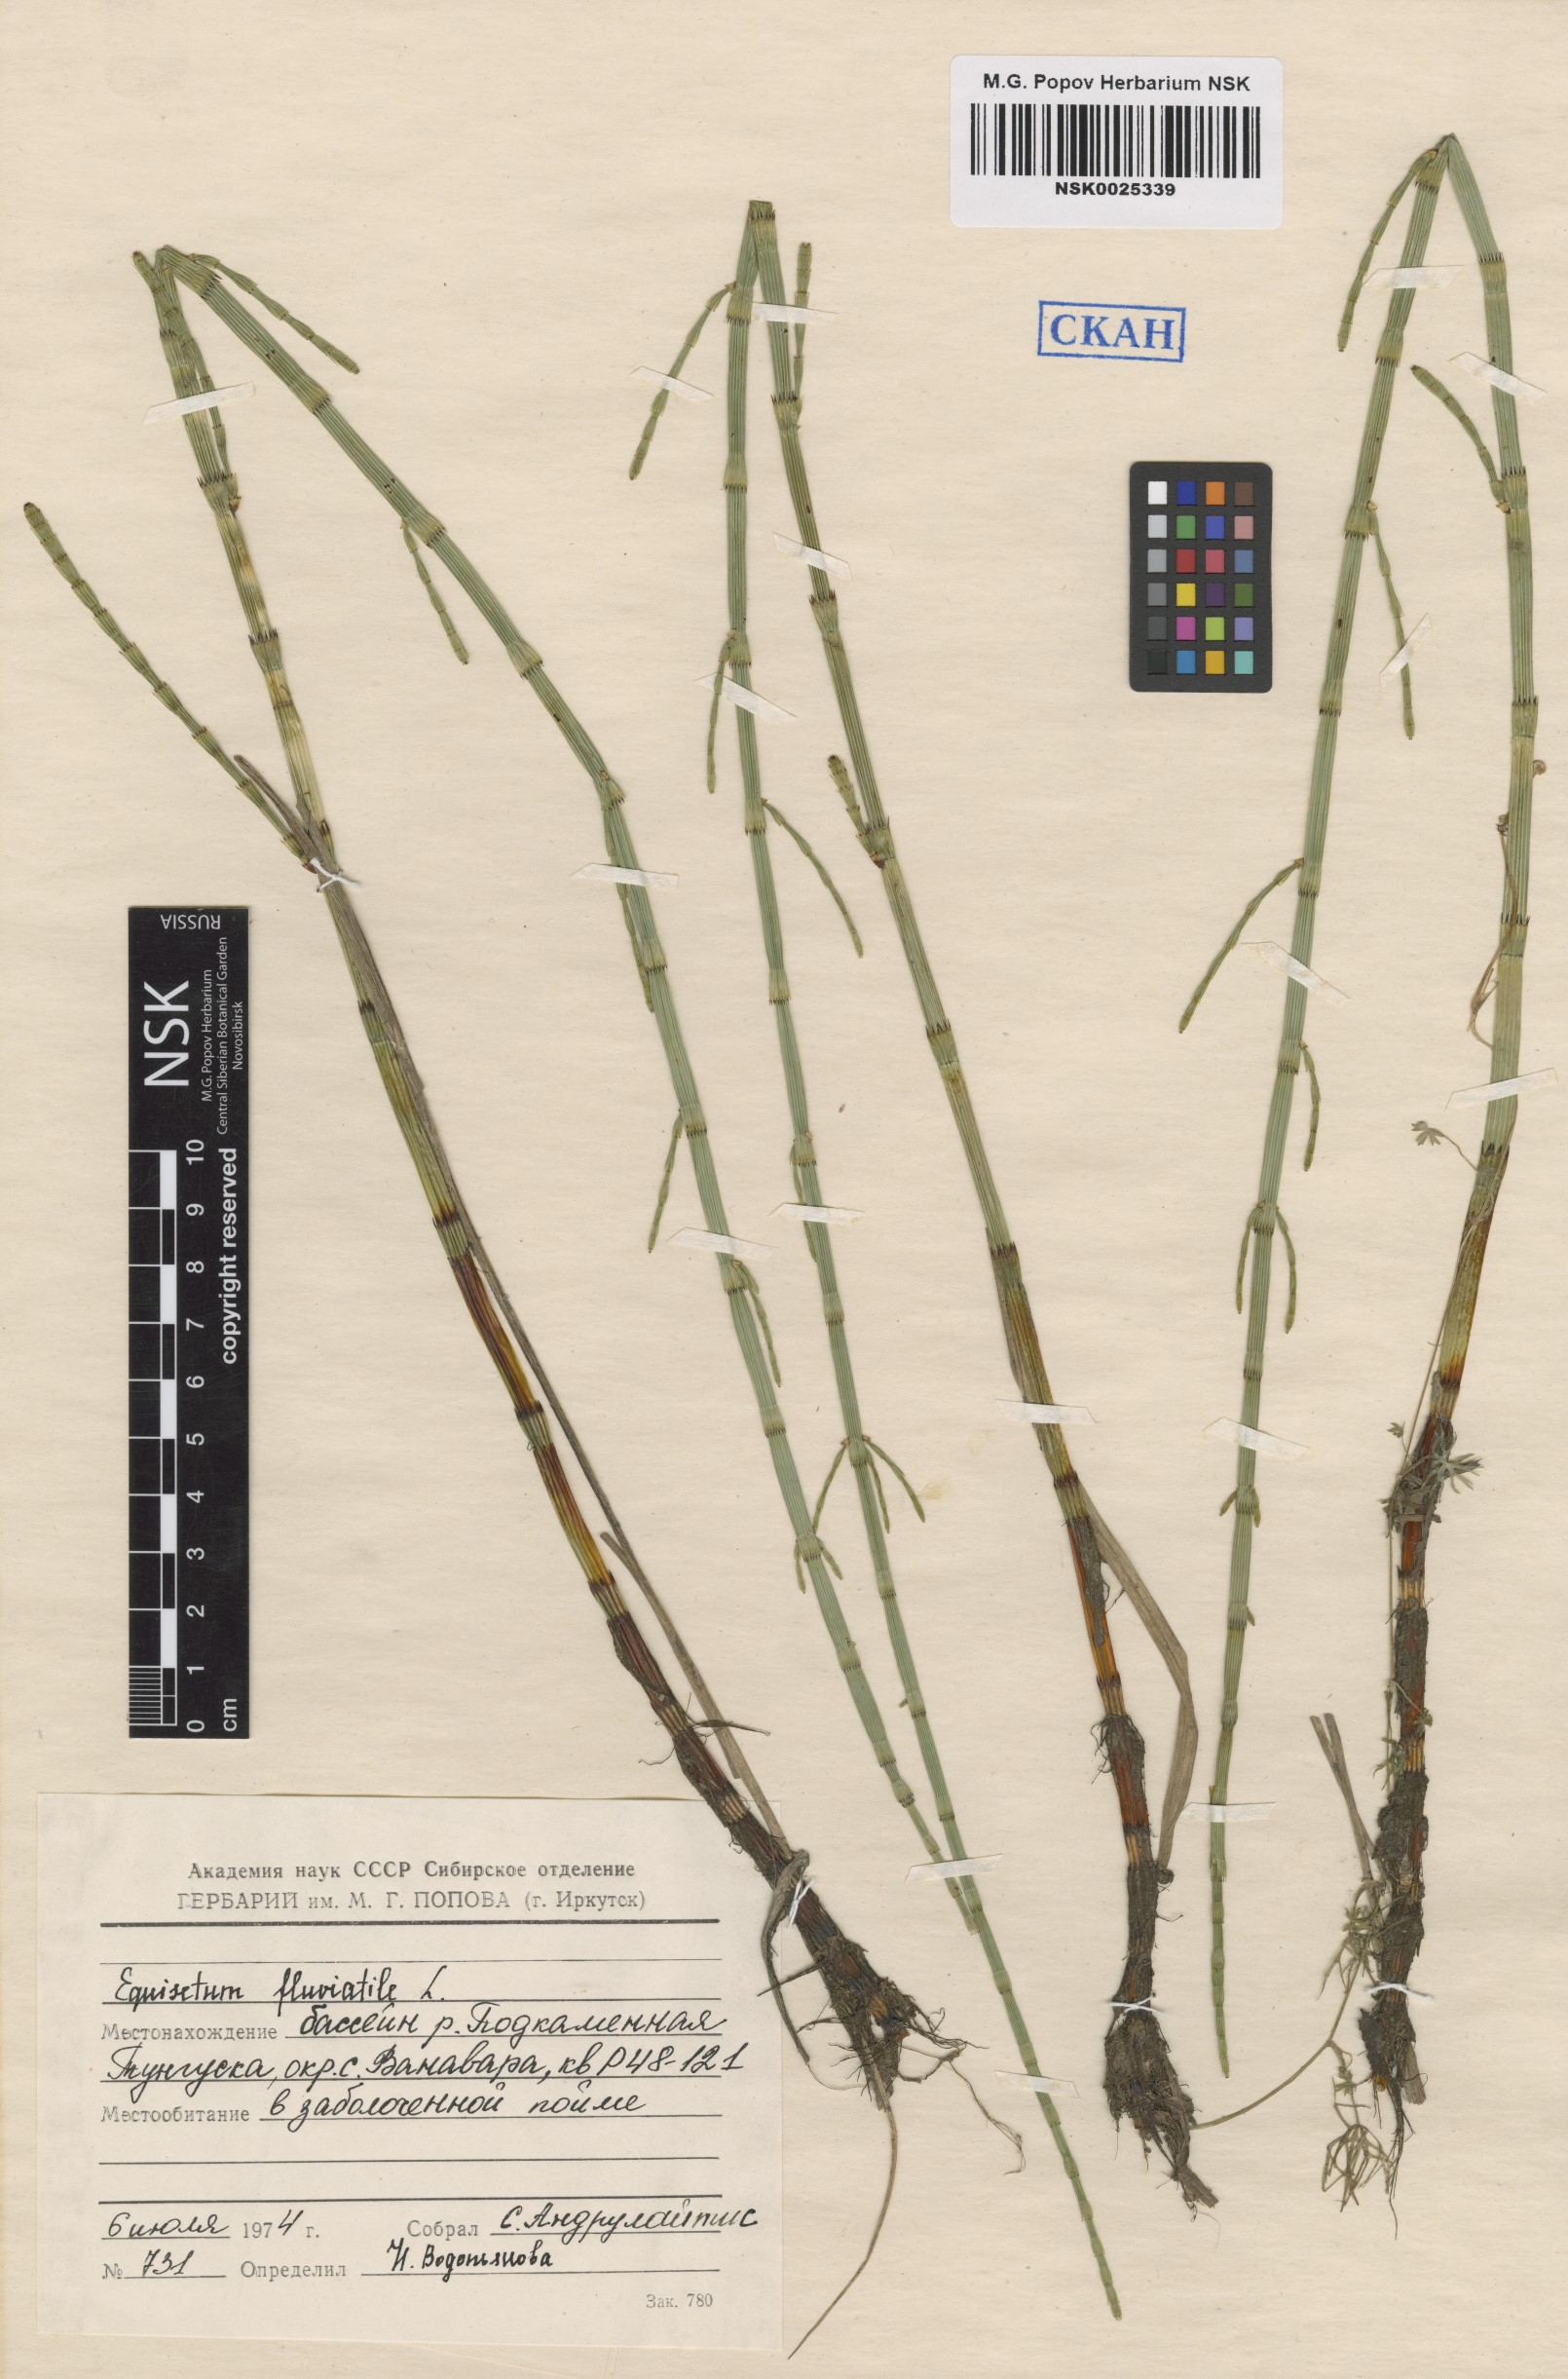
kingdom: Plantae
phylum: Tracheophyta
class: Polypodiopsida
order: Equisetales
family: Equisetaceae
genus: Equisetum
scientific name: Equisetum fluviatile
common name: Water horsetail
